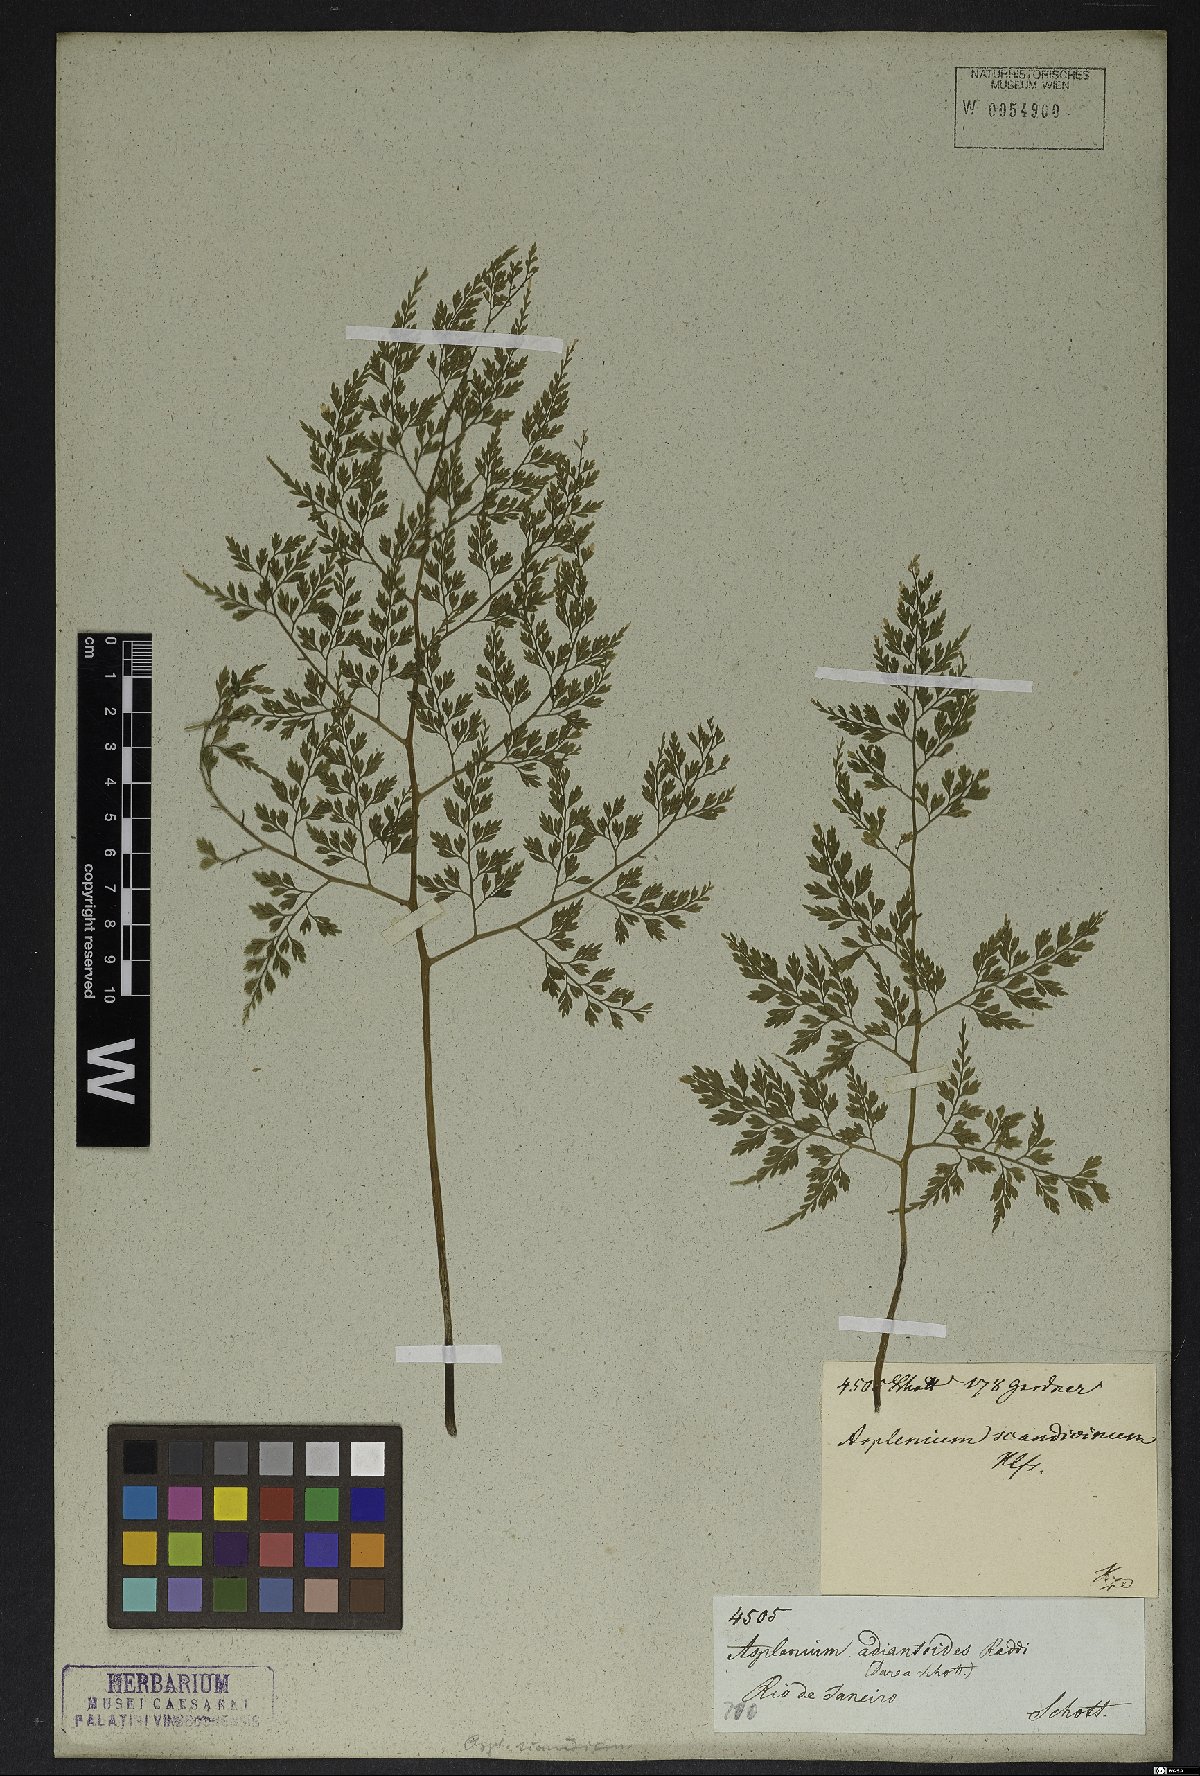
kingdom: Plantae
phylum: Tracheophyta
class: Polypodiopsida
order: Polypodiales
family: Aspleniaceae
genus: Asplenium
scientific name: Asplenium scandicinum
